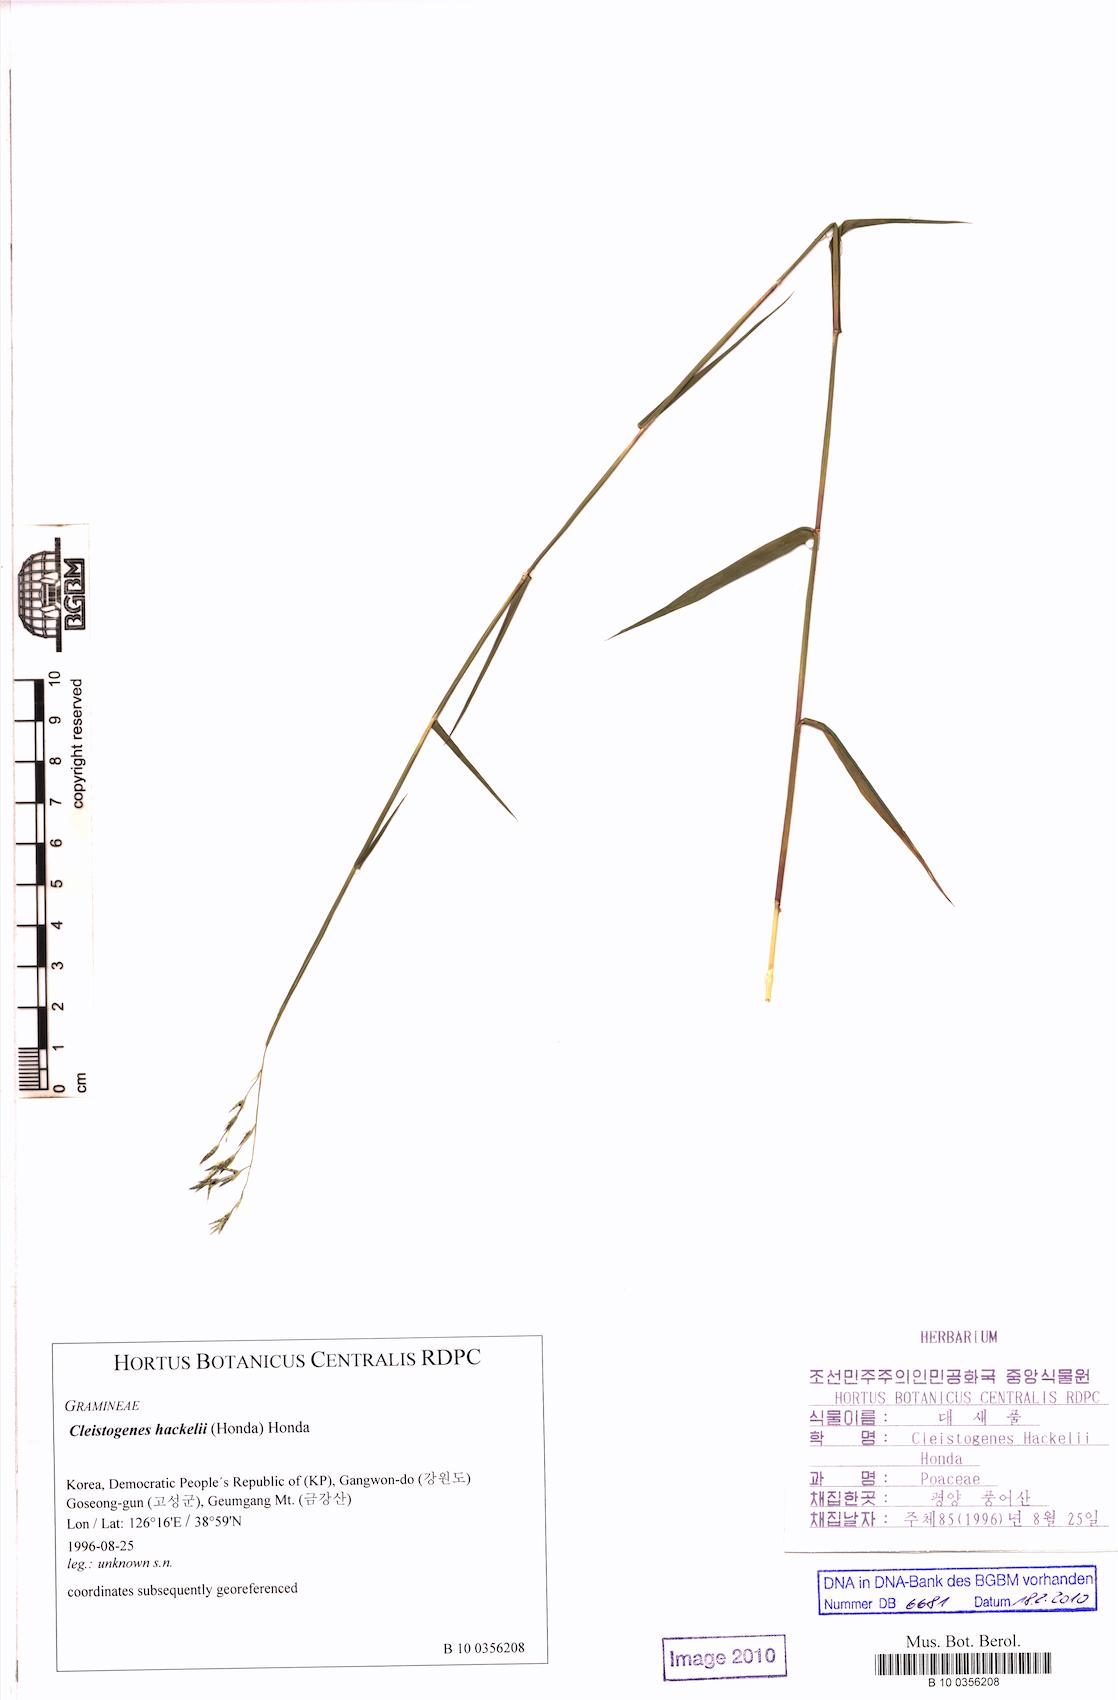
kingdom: Plantae
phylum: Tracheophyta
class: Liliopsida
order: Poales
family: Poaceae
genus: Cleistogenes
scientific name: Cleistogenes hackelii
